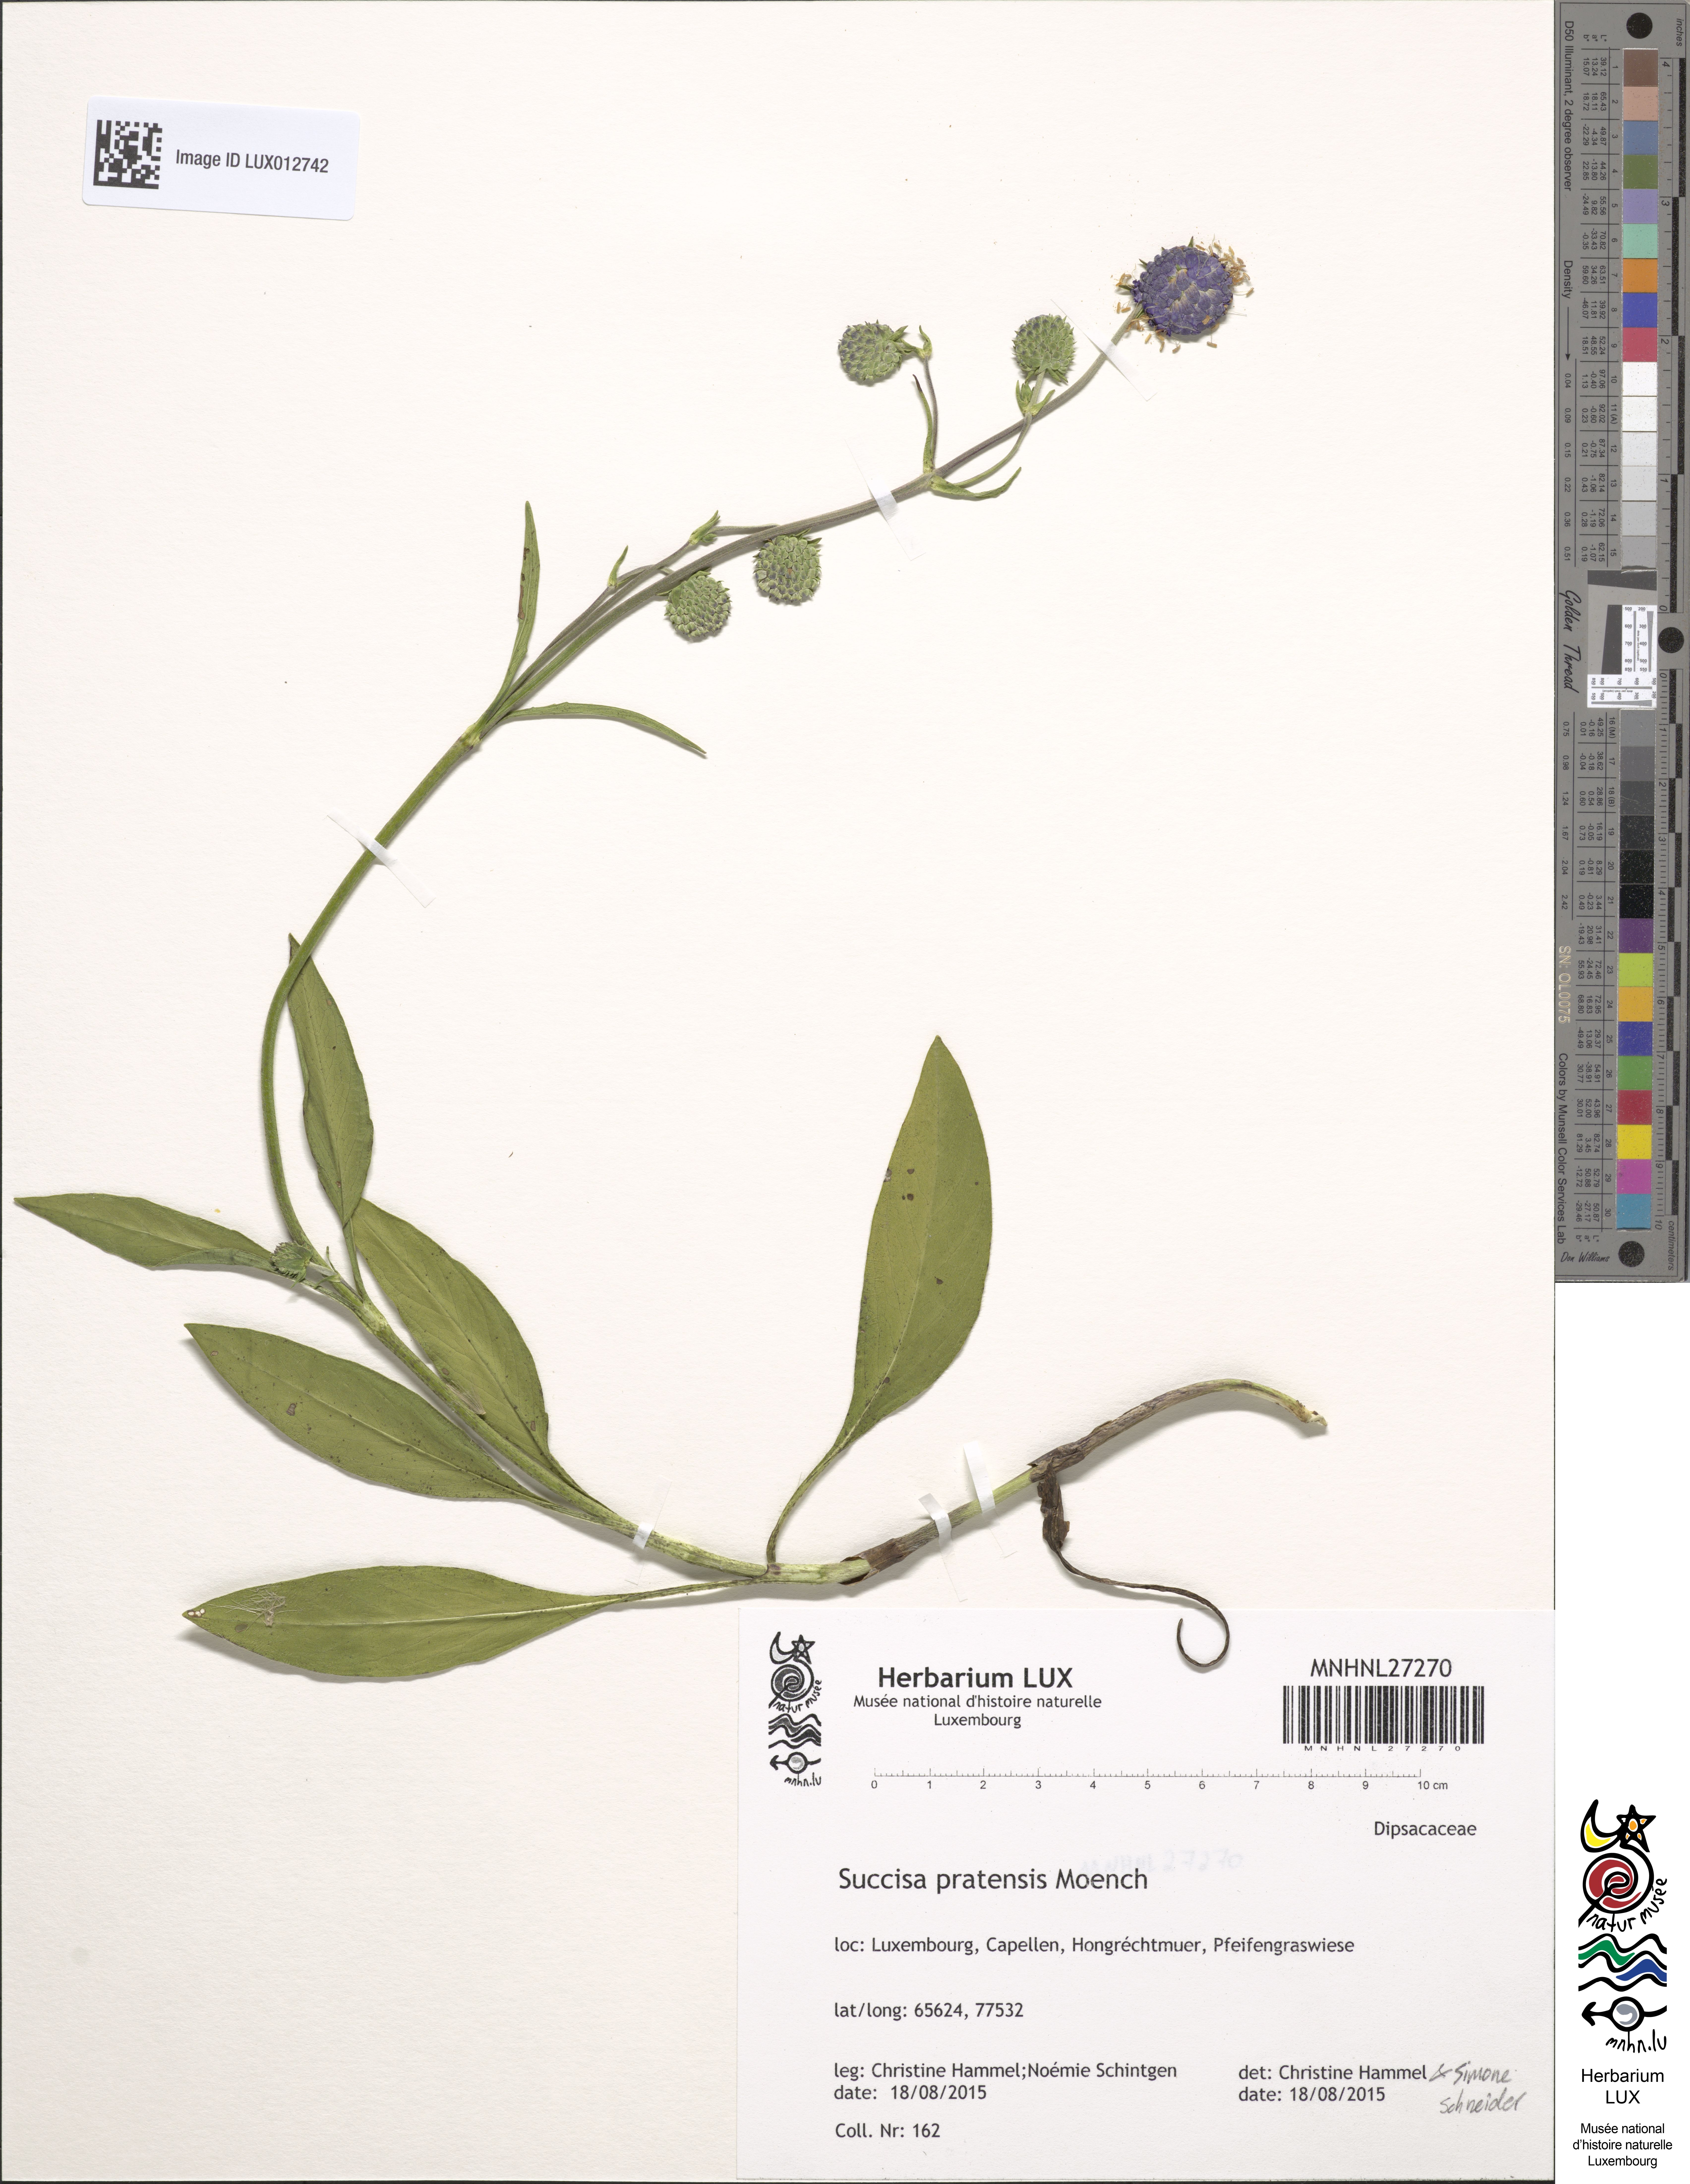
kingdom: Plantae
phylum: Tracheophyta
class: Magnoliopsida
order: Dipsacales
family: Caprifoliaceae
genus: Succisa
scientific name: Succisa pratensis
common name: Devil's-bit
